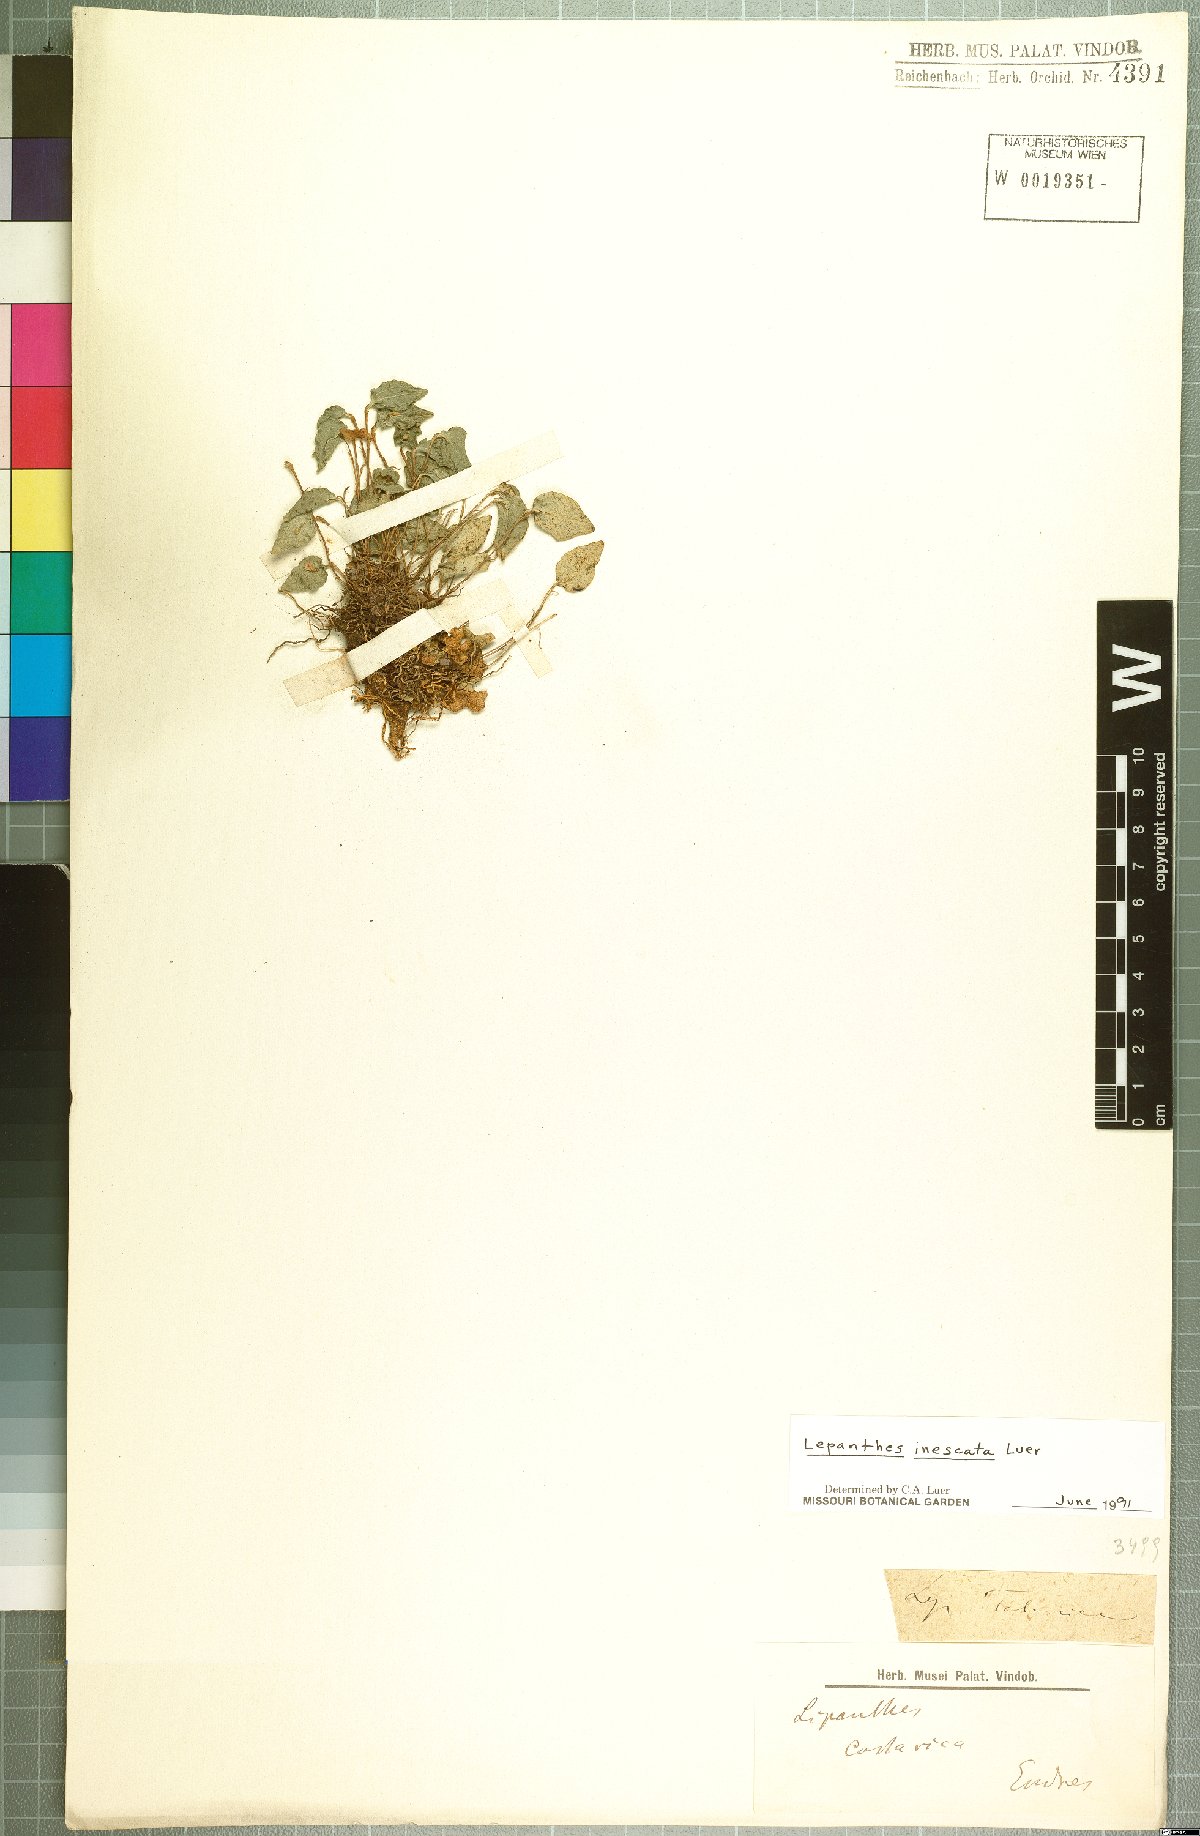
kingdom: Plantae
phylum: Tracheophyta
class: Liliopsida
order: Asparagales
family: Orchidaceae
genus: Lepanthes
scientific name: Lepanthes inescata
